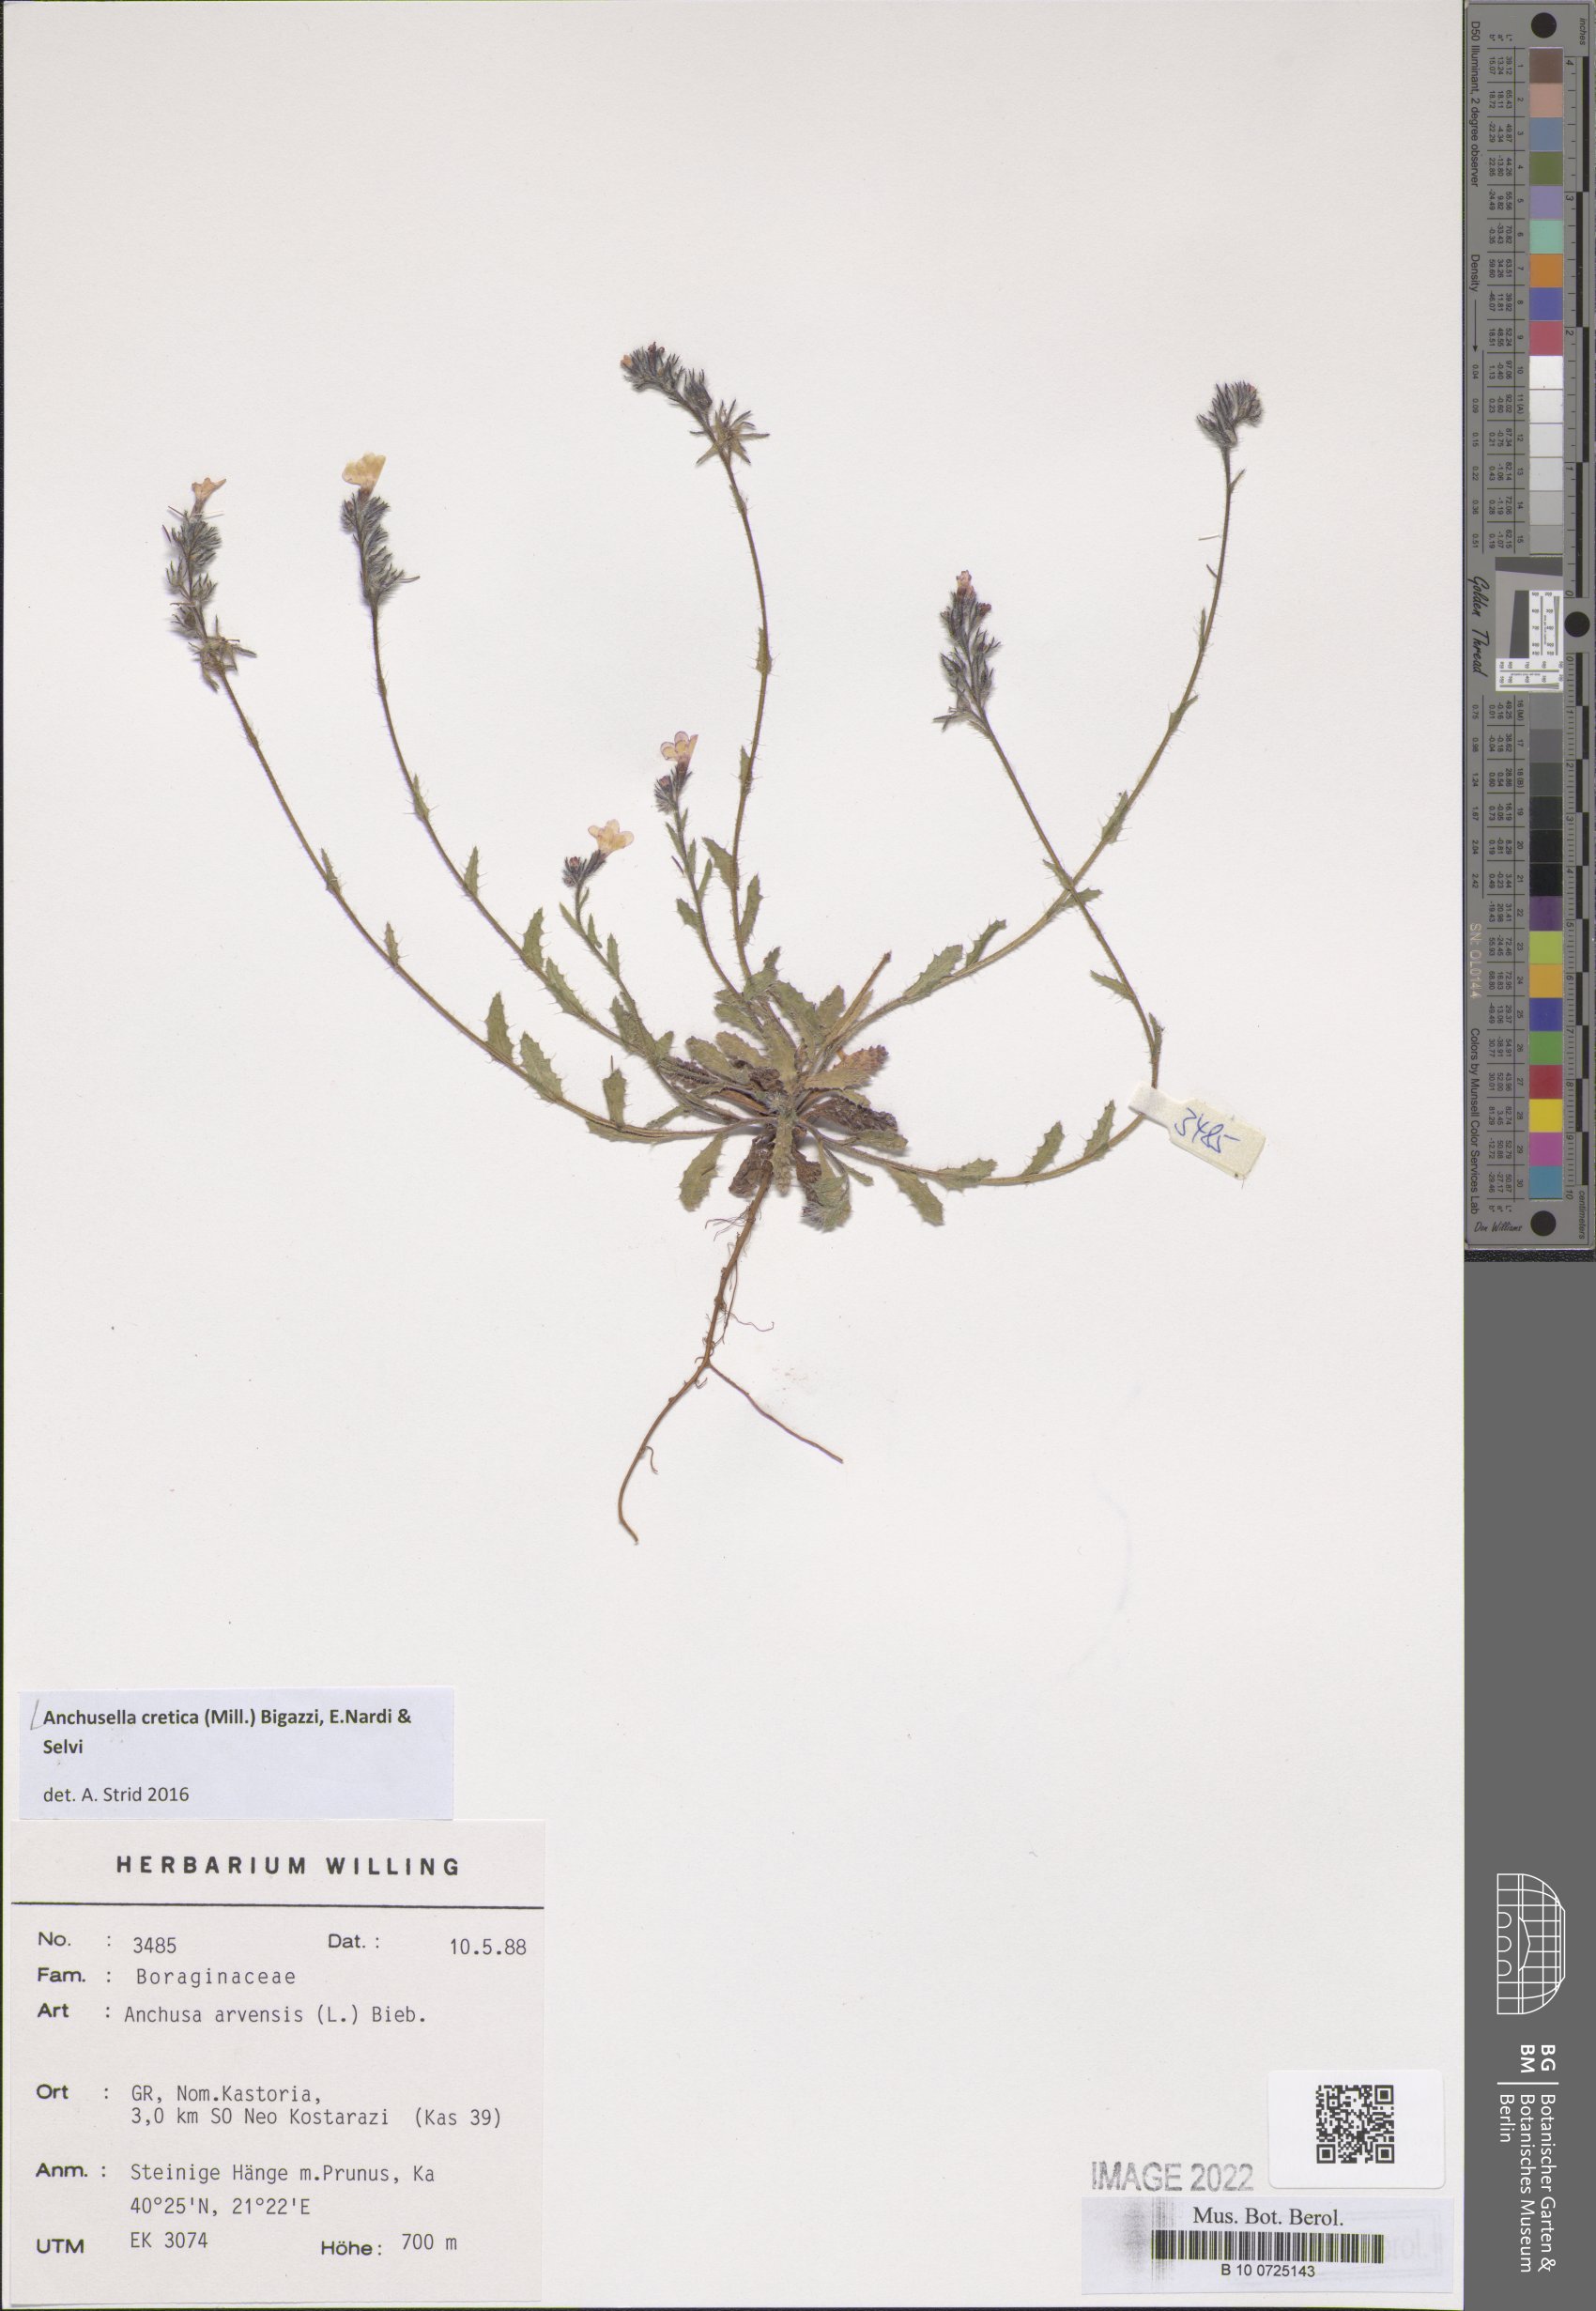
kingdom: Plantae
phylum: Tracheophyta
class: Magnoliopsida
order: Boraginales
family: Boraginaceae
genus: Anchusella
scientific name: Anchusella cretica
